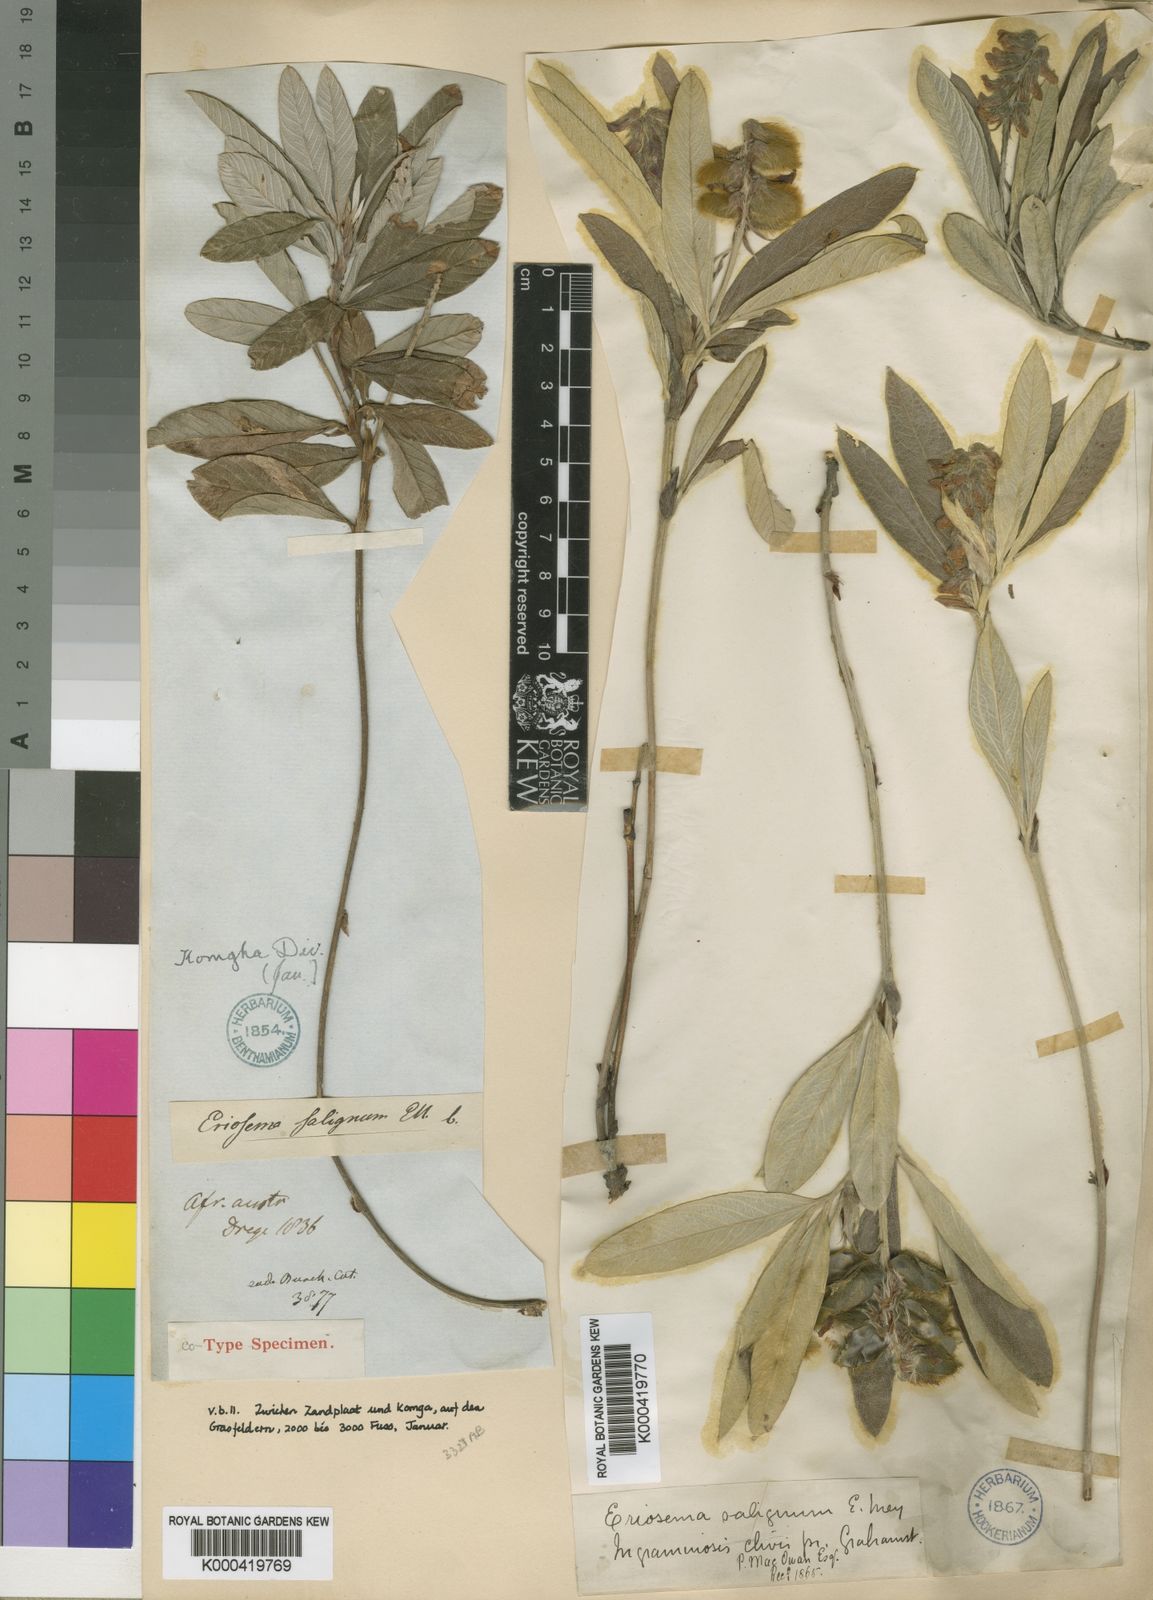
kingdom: Plantae
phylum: Tracheophyta
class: Magnoliopsida
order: Fabales
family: Fabaceae
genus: Eriosema
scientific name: Eriosema salignum
